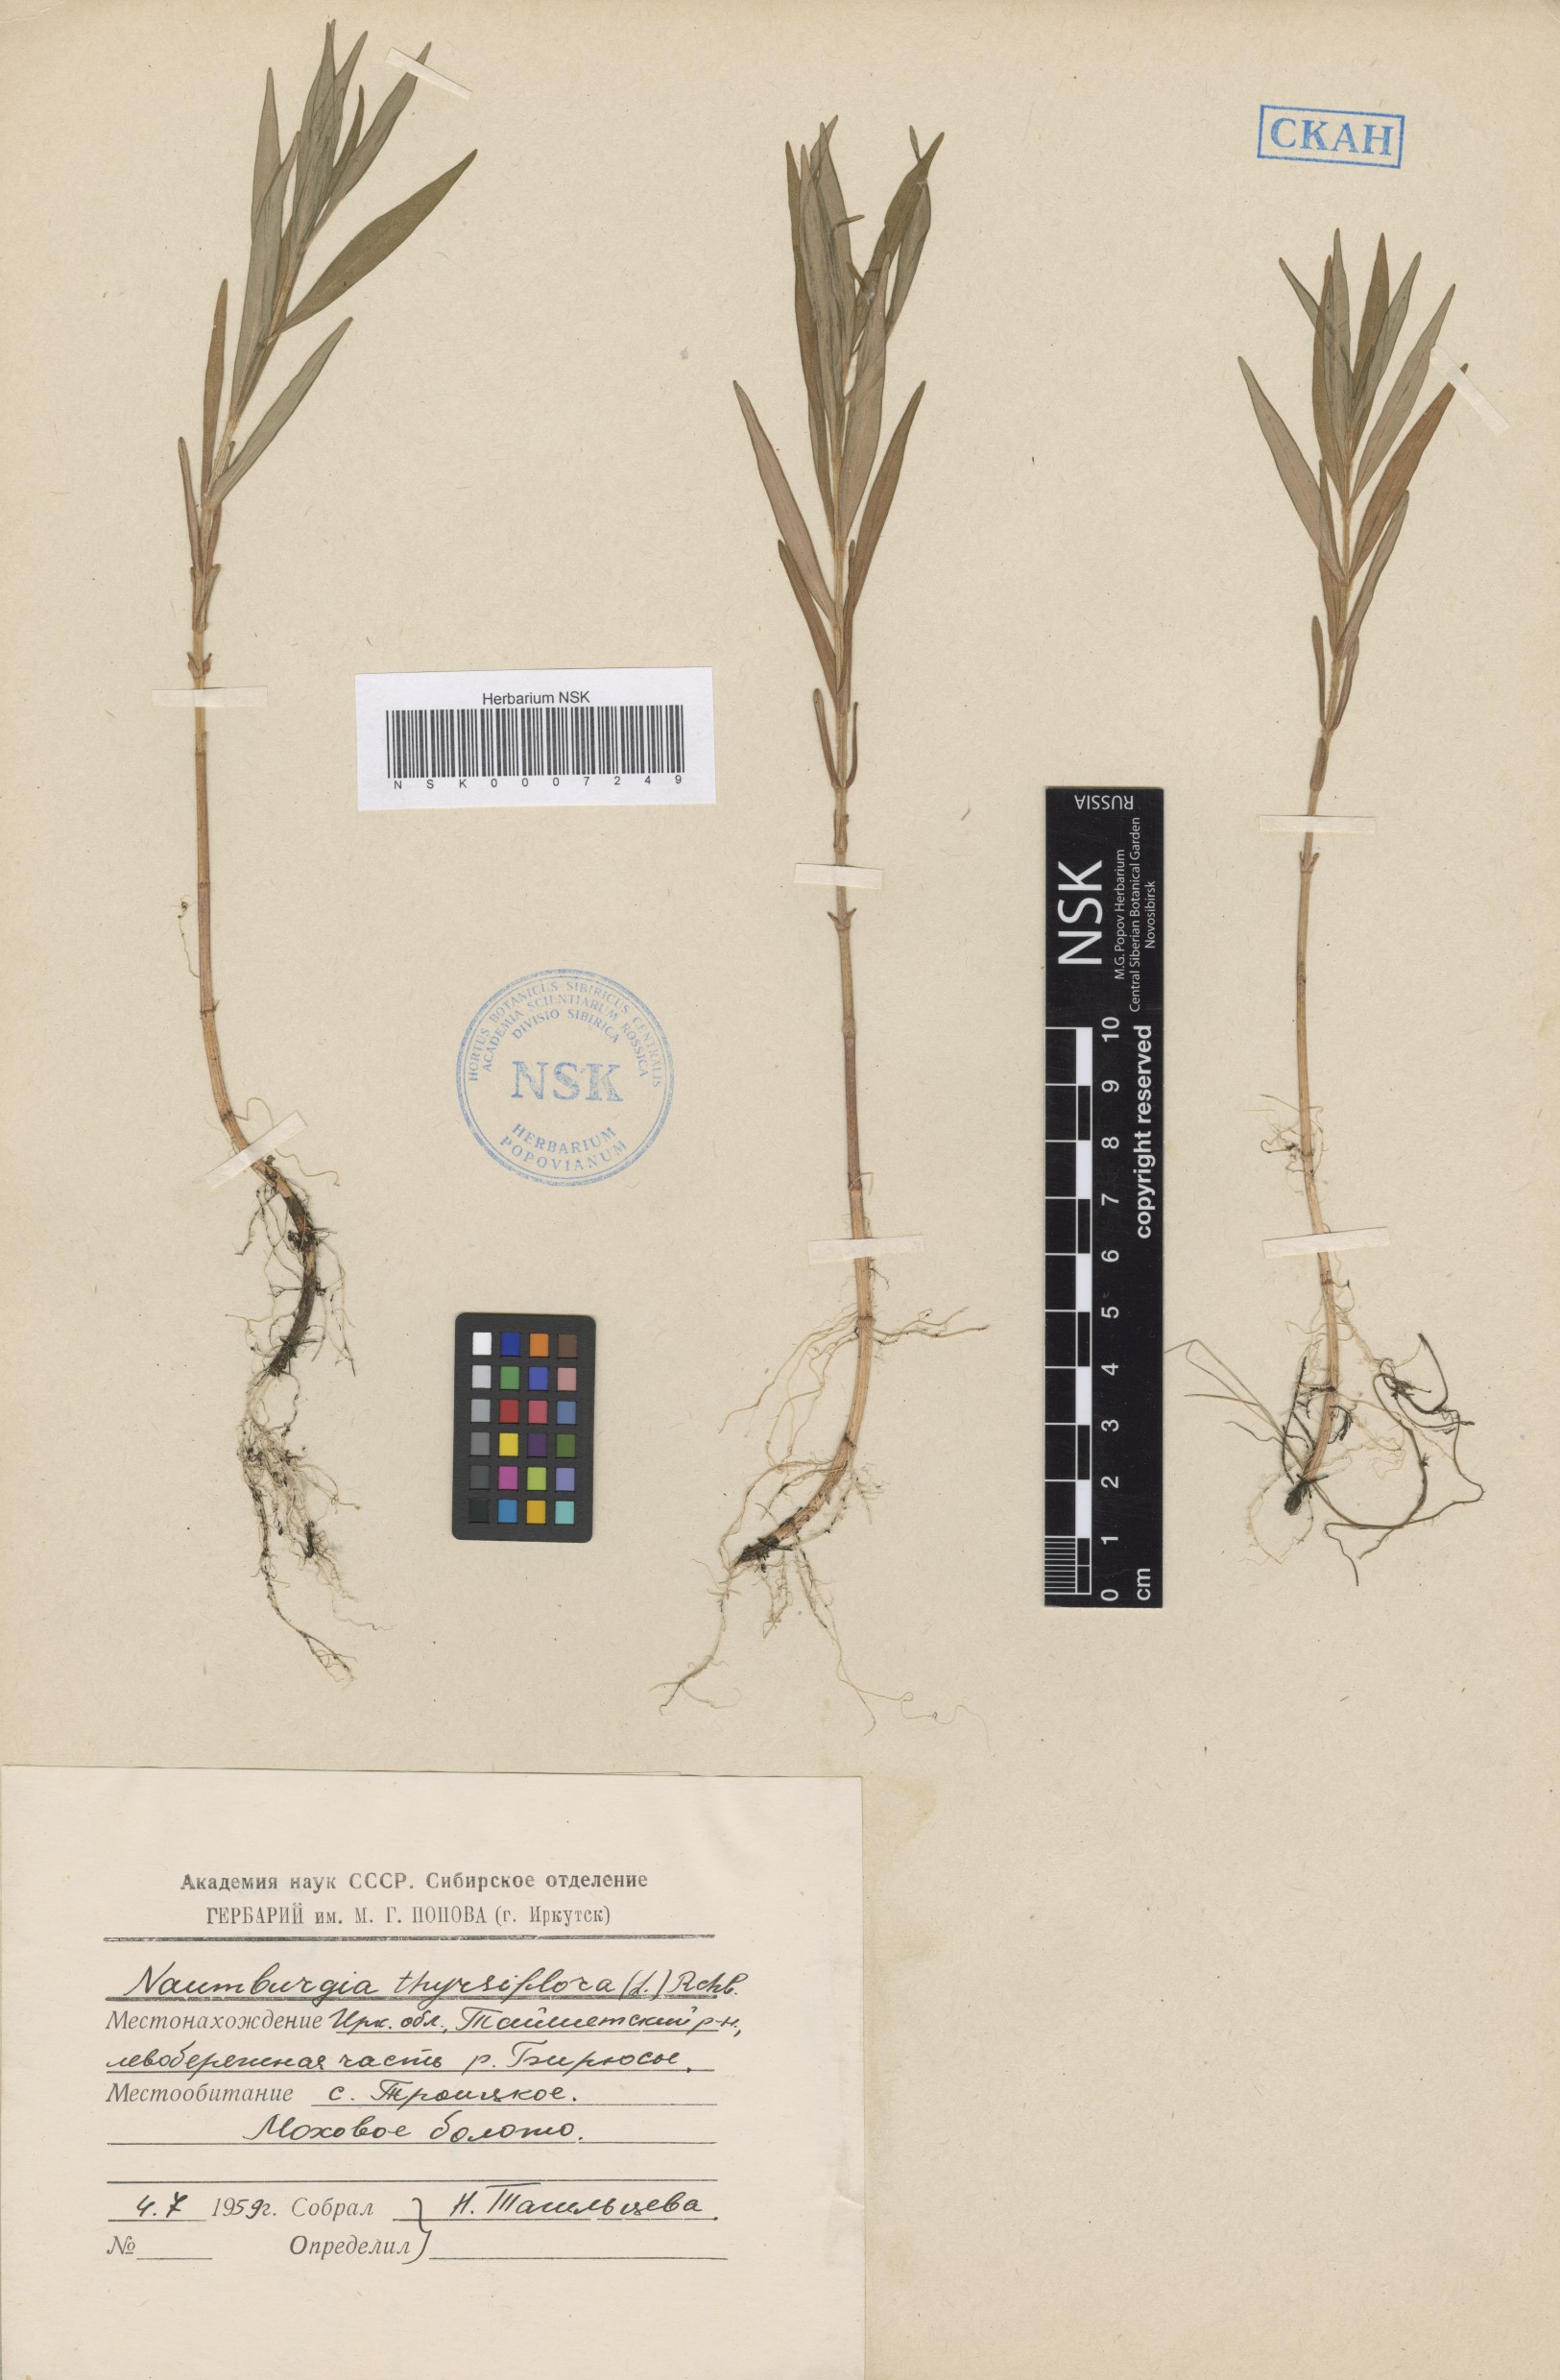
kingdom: Plantae
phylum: Tracheophyta
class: Magnoliopsida
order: Ericales
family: Primulaceae
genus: Lysimachia
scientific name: Lysimachia thyrsiflora
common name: Tufted loosestrife
